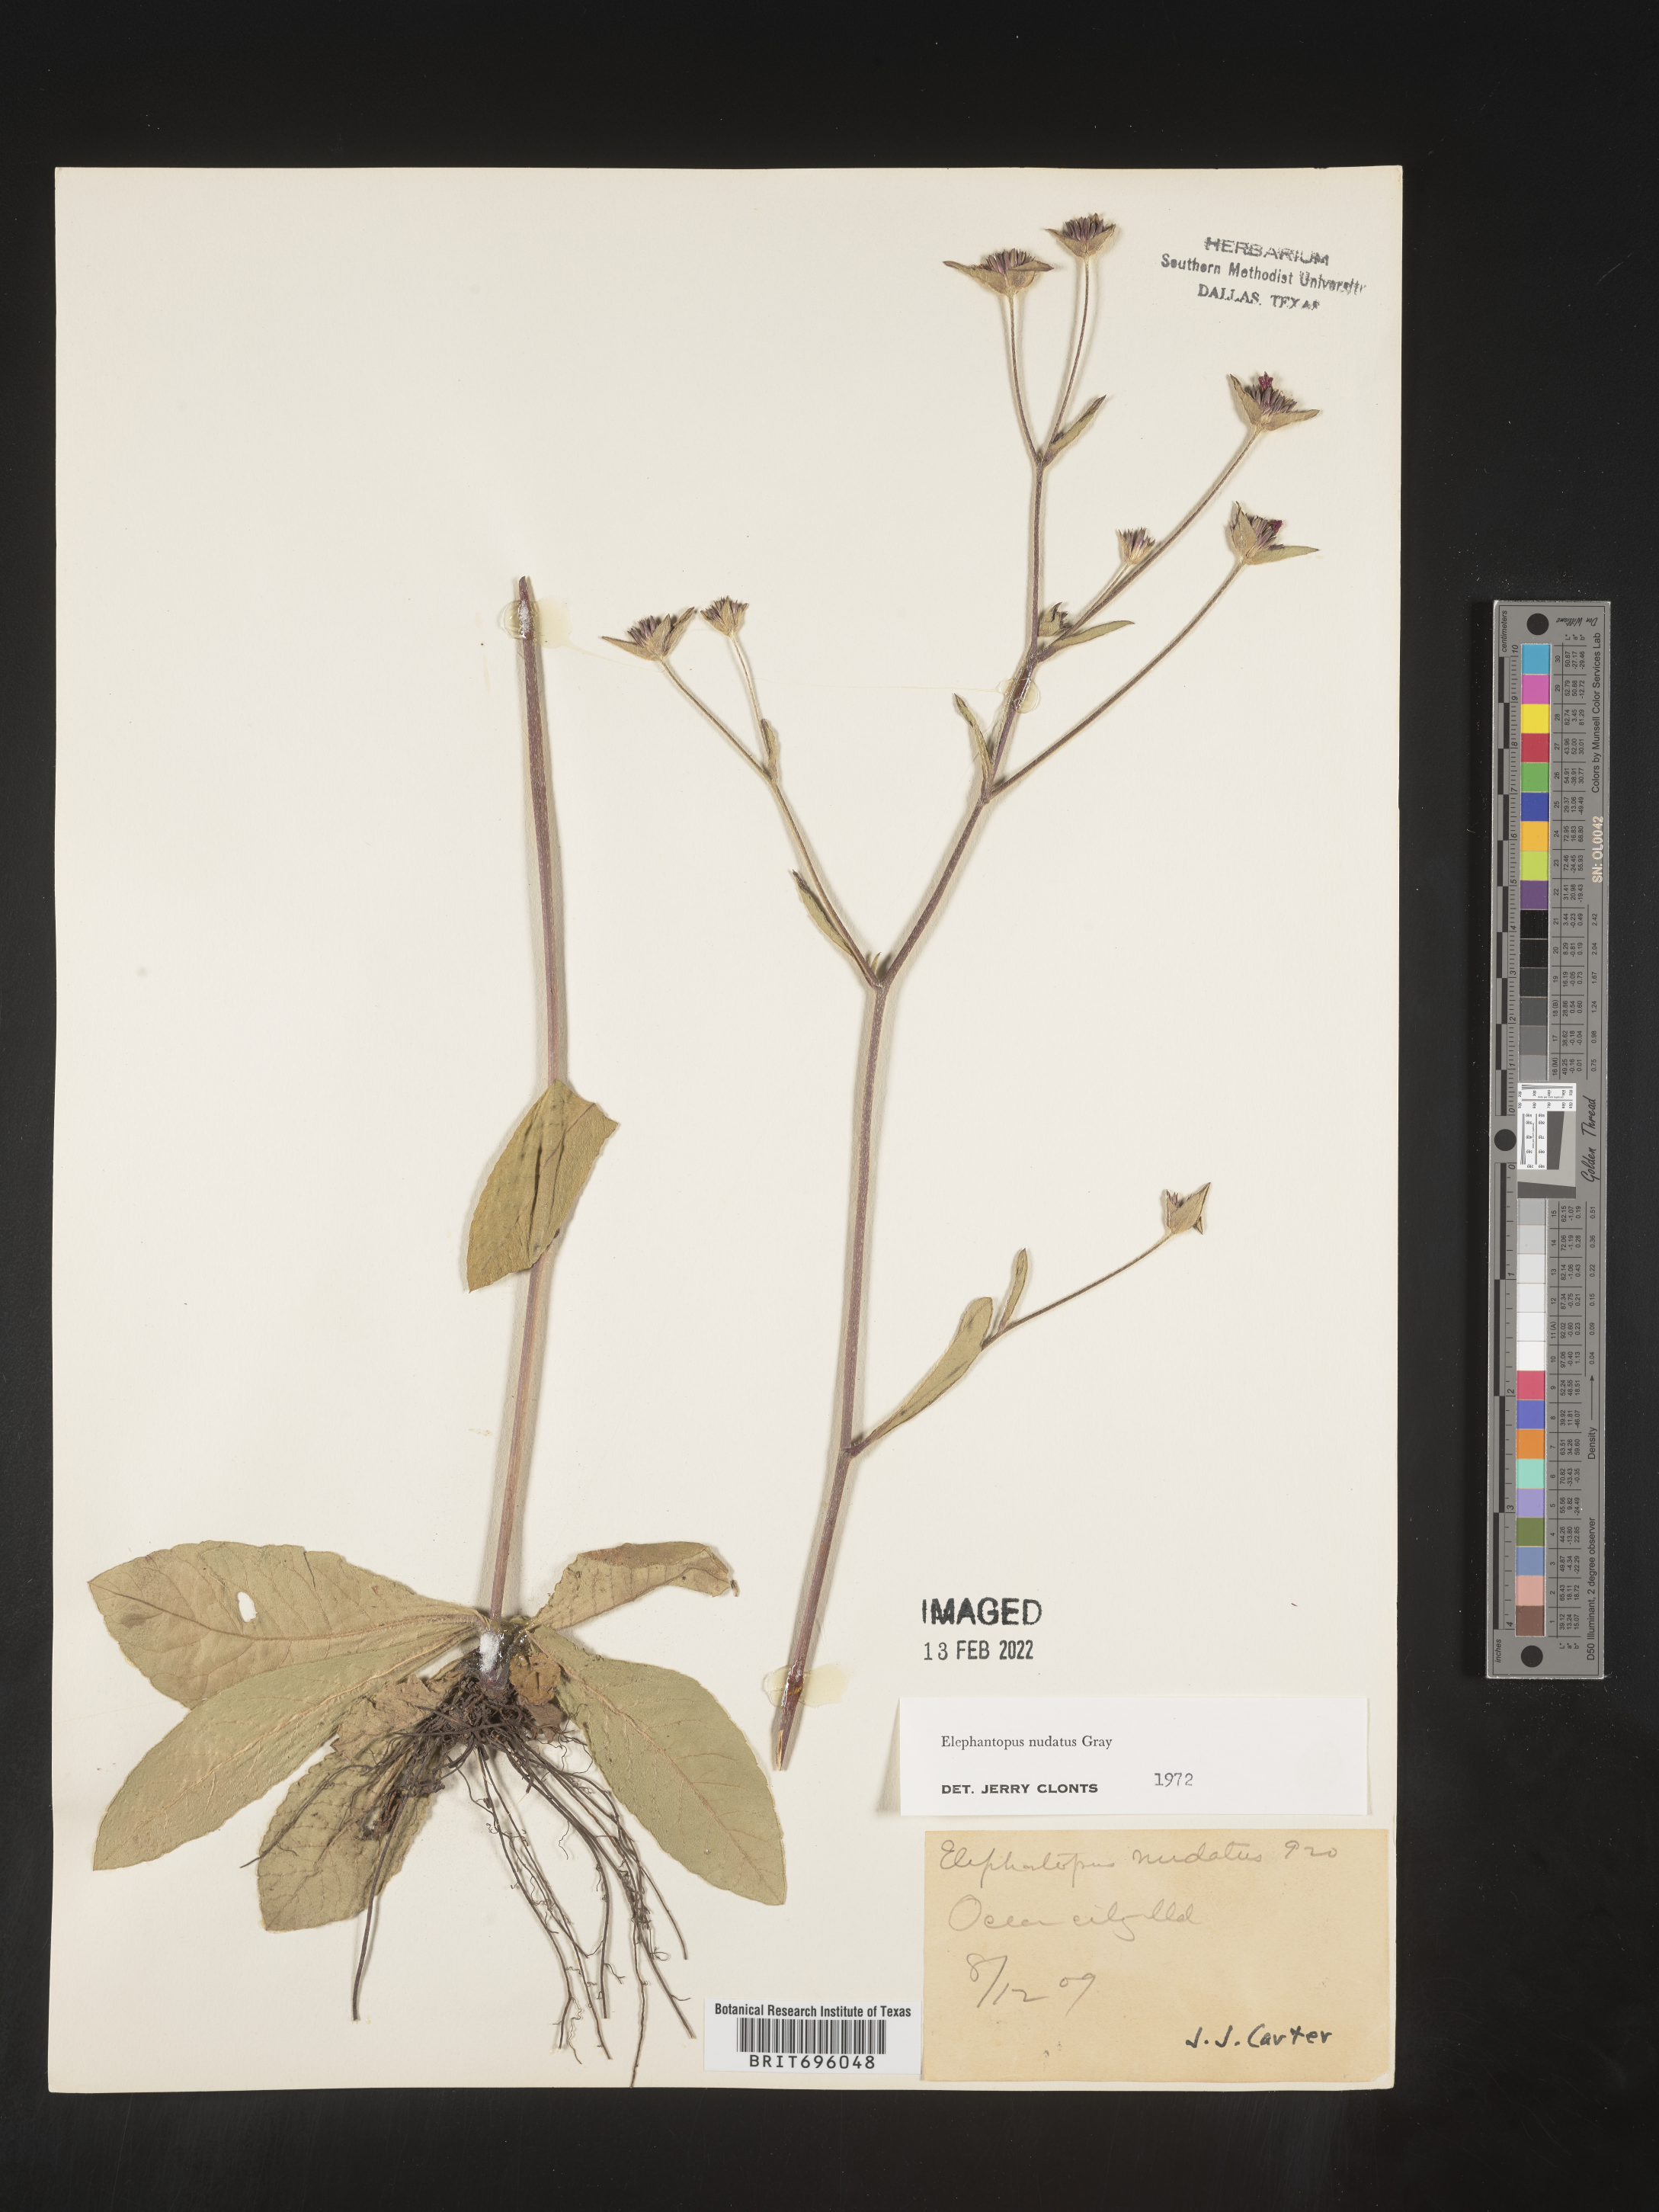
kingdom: Plantae
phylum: Tracheophyta
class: Magnoliopsida
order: Asterales
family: Asteraceae
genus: Elephantopus
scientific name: Elephantopus nudatus
